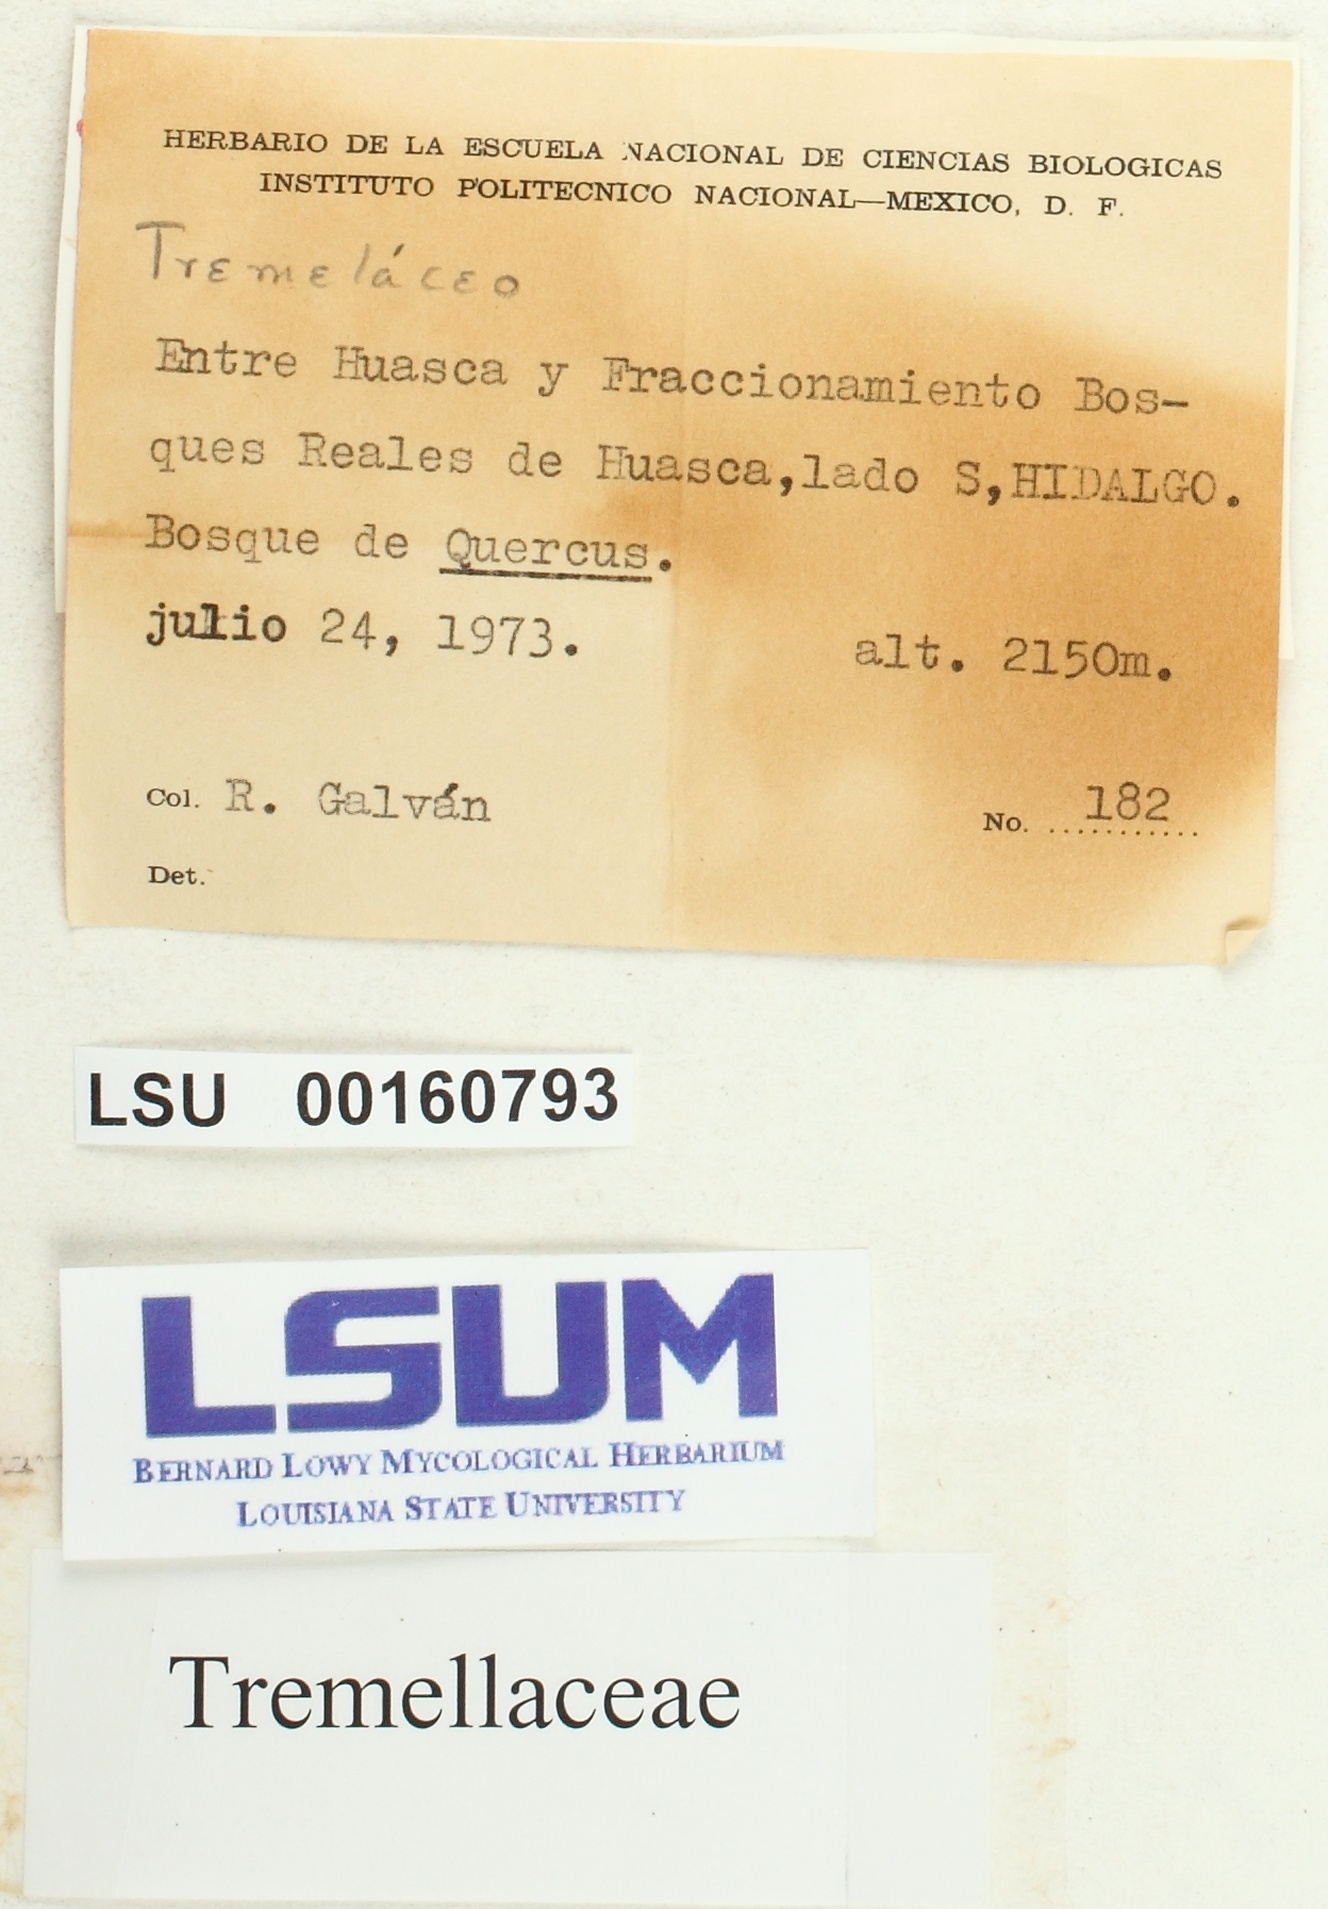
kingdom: Fungi
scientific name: Fungi
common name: Fungi
